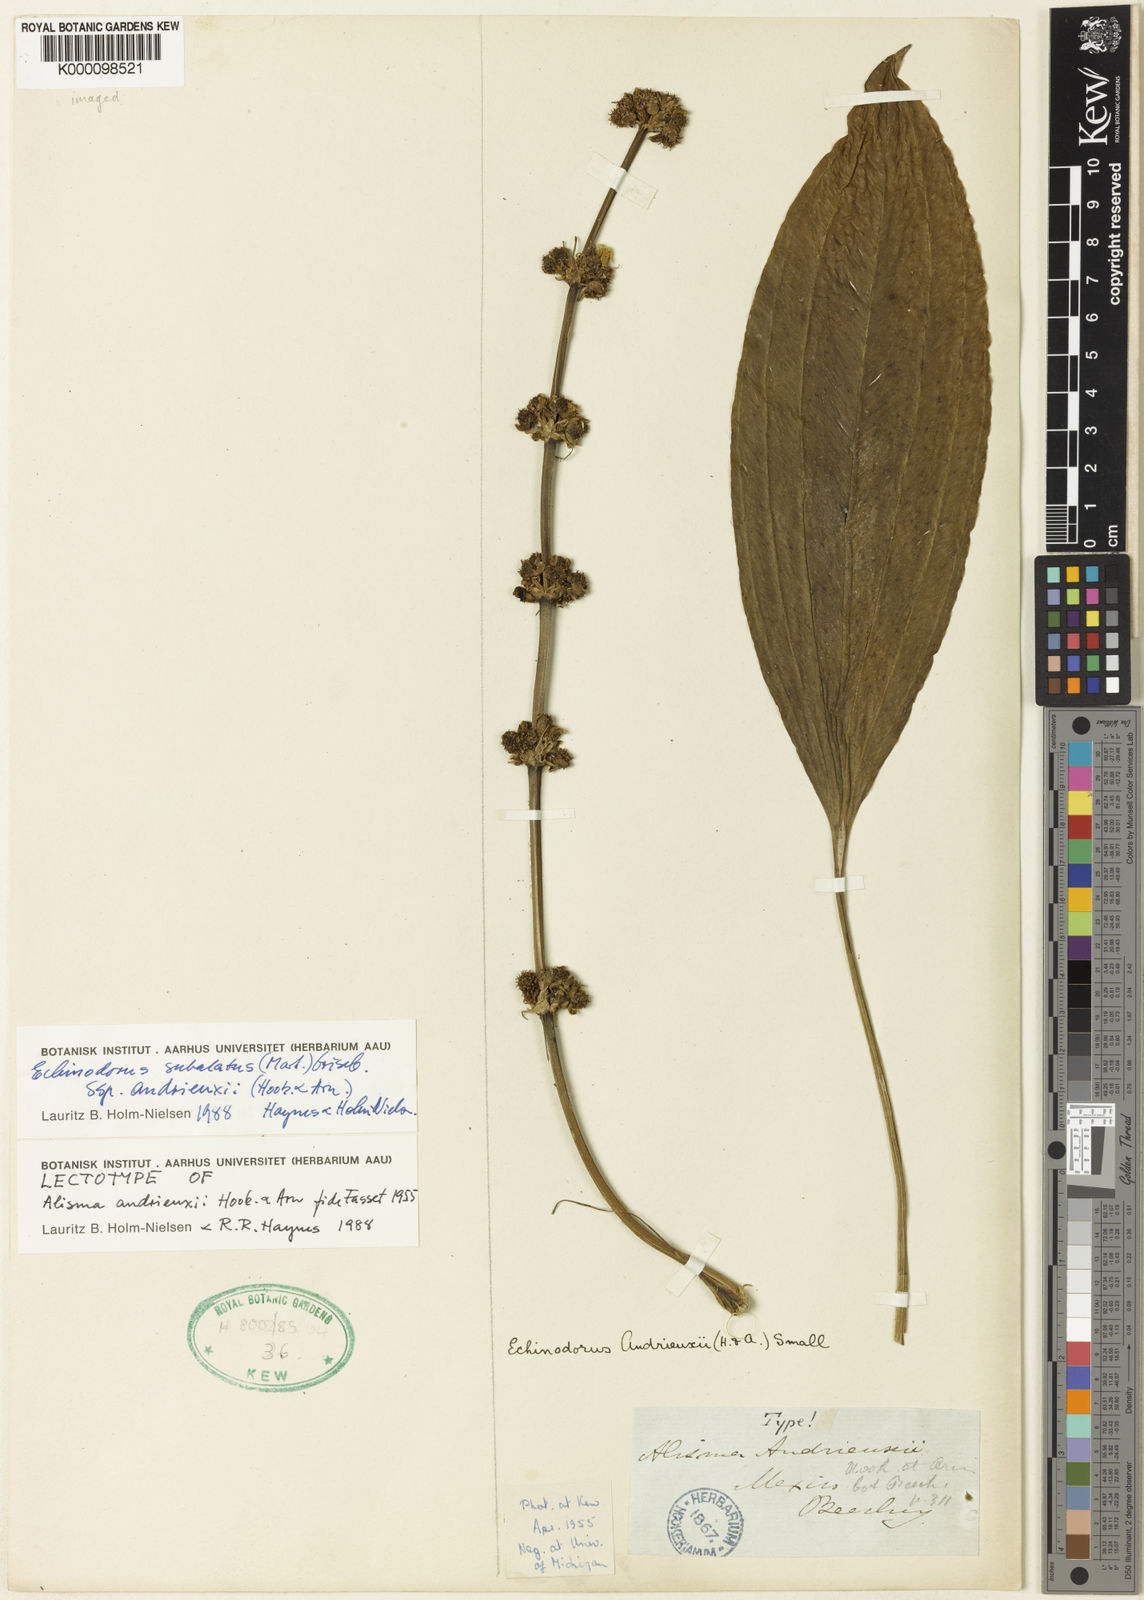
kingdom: Plantae
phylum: Tracheophyta
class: Liliopsida
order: Alismatales
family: Alismataceae
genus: Aquarius
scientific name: Aquarius subulatus
